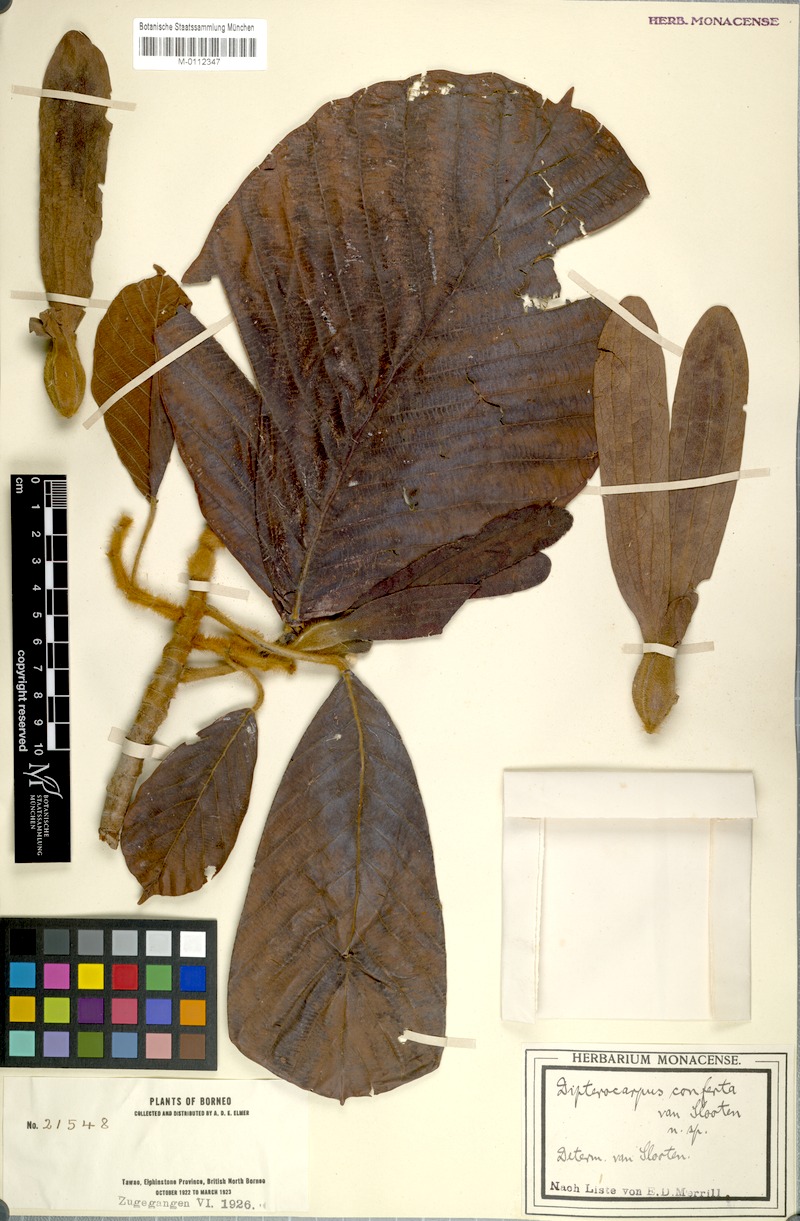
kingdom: Plantae
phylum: Tracheophyta
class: Magnoliopsida
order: Malvales
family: Dipterocarpaceae
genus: Dipterocarpus
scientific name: Dipterocarpus confertus
